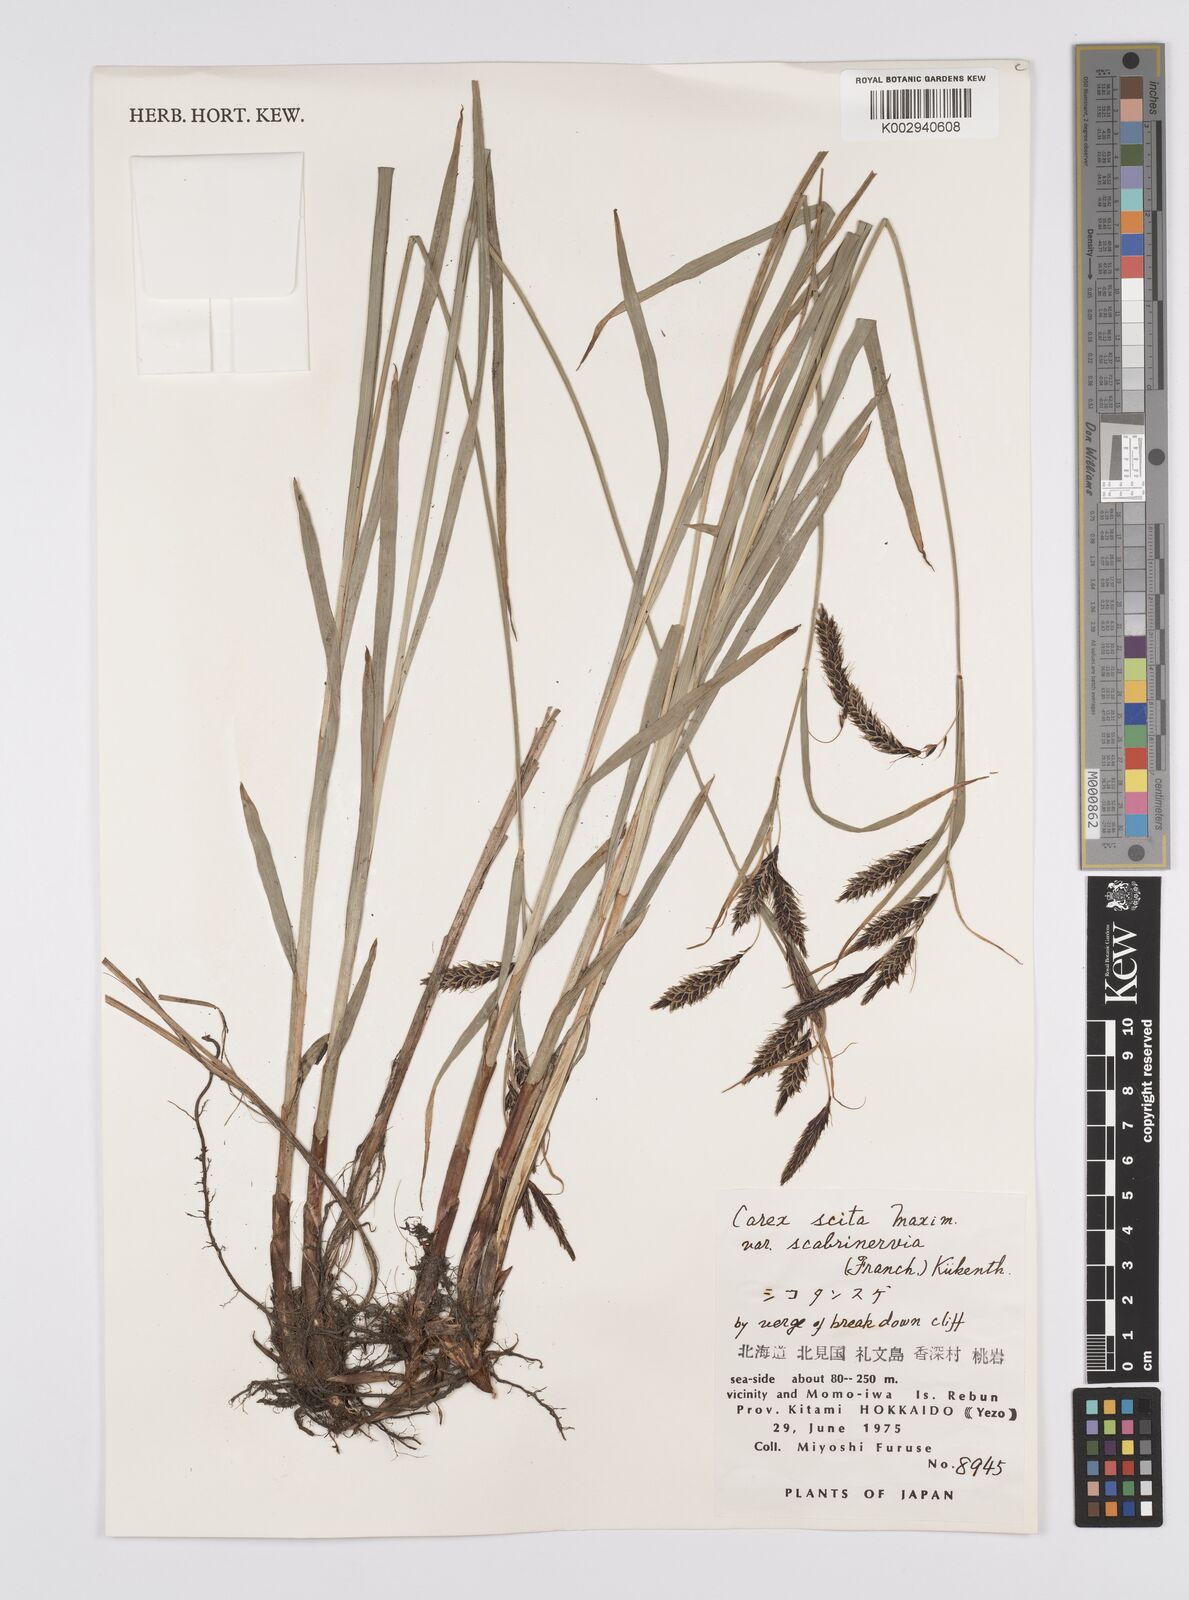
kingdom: Plantae
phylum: Tracheophyta
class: Liliopsida
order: Poales
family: Cyperaceae
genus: Carex
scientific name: Carex scita
